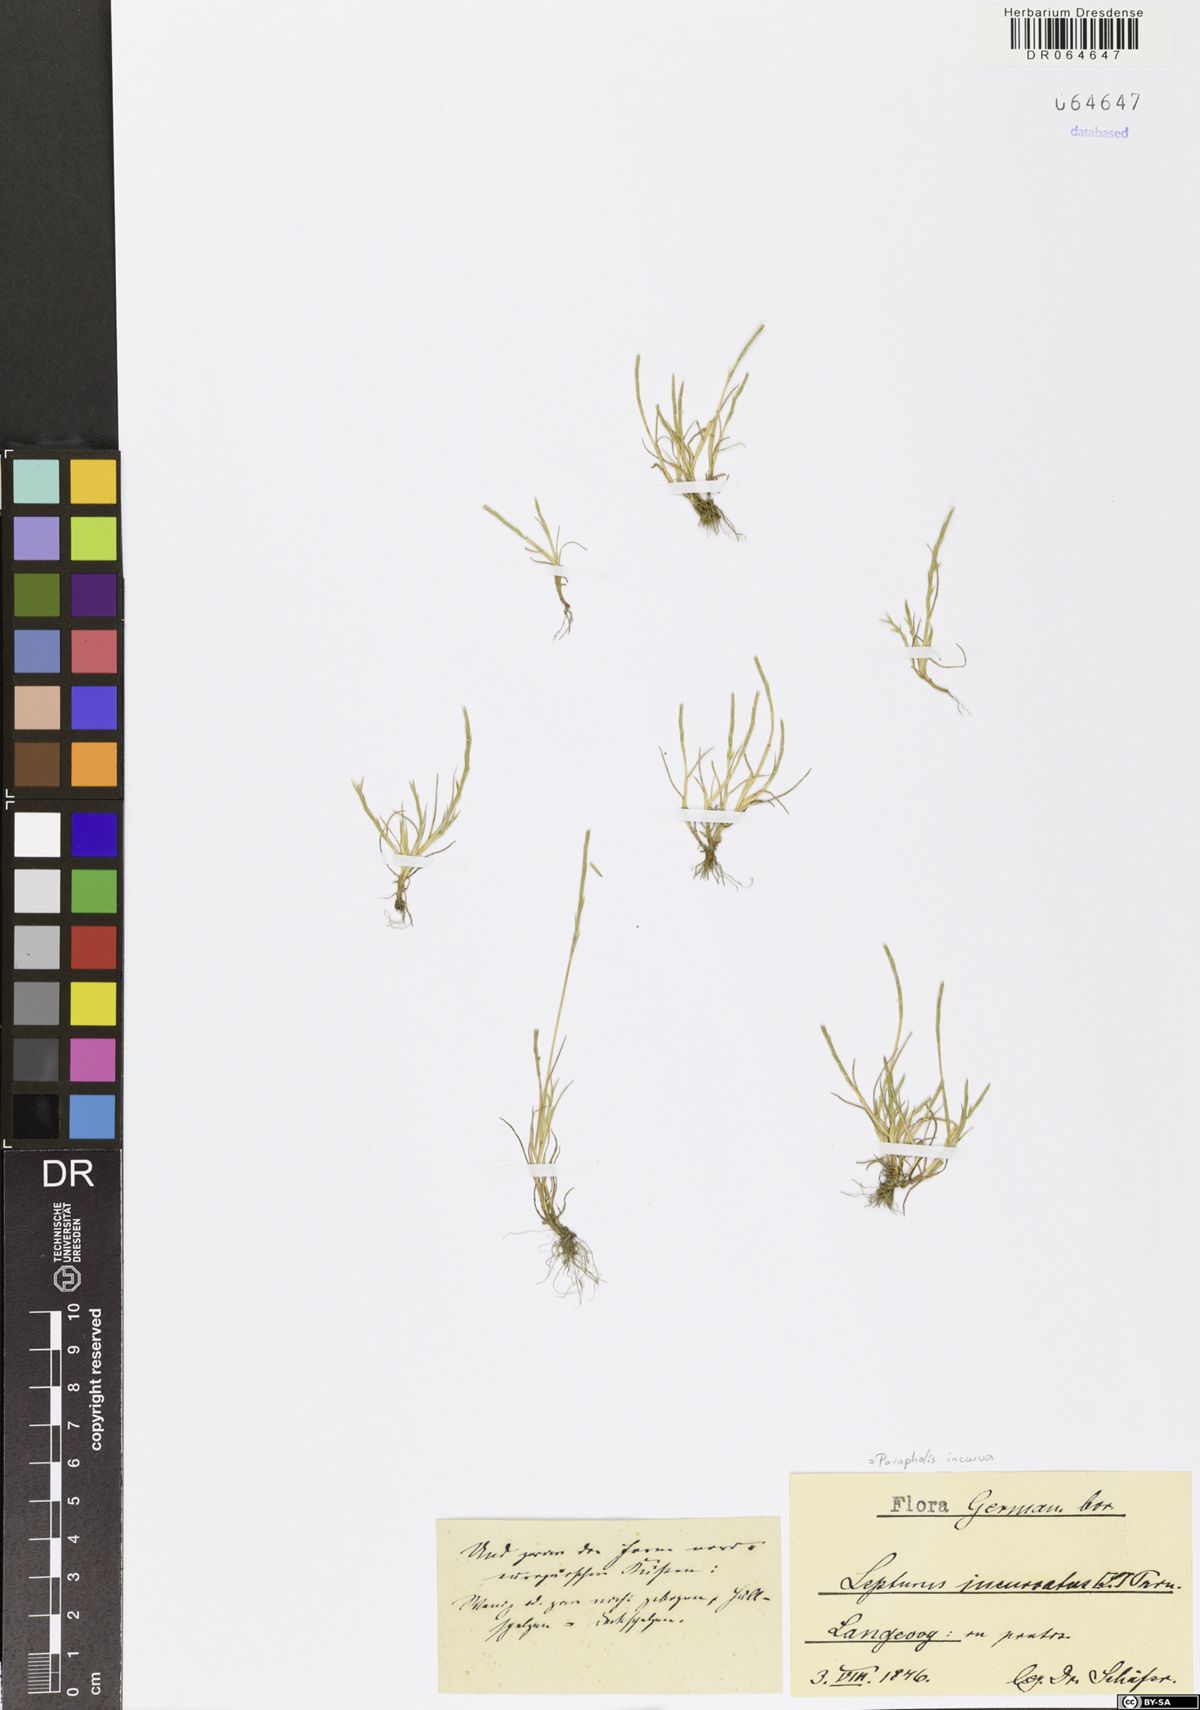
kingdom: Plantae
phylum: Tracheophyta
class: Liliopsida
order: Poales
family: Poaceae
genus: Parapholis
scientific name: Parapholis incurva
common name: Curved sicklegrass
